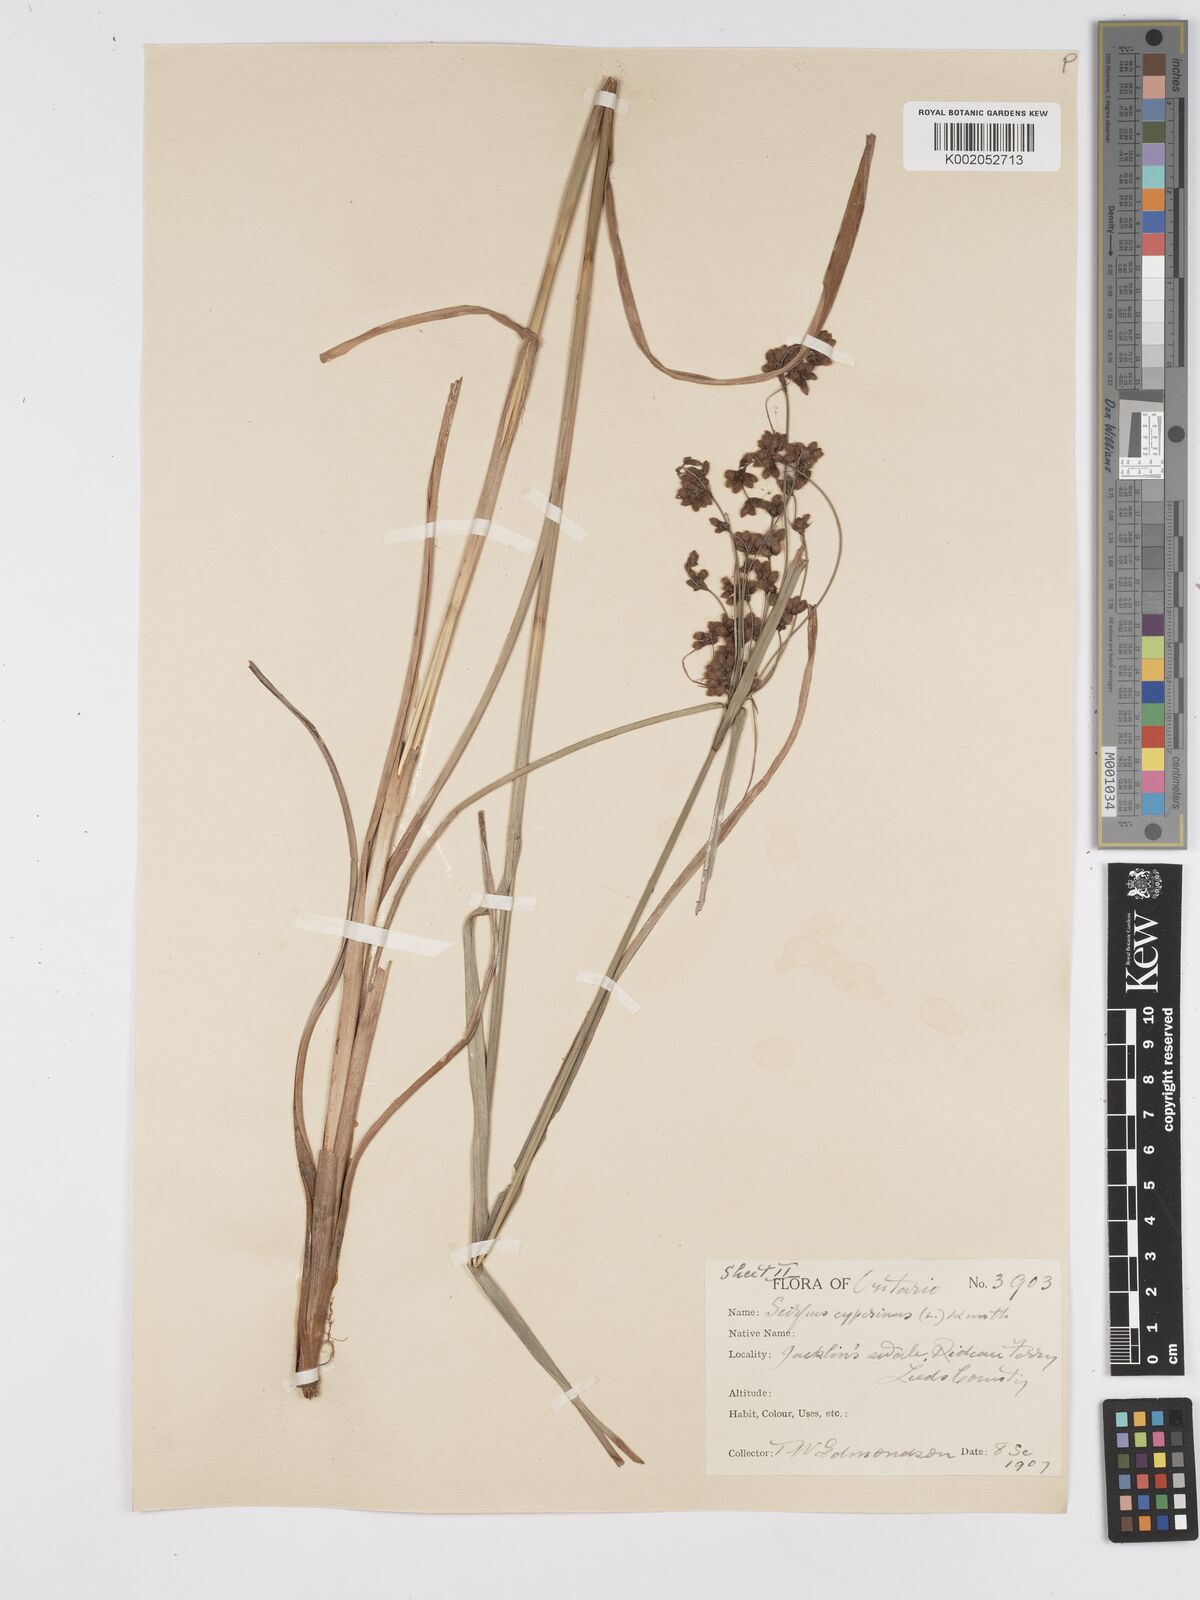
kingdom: Plantae
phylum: Tracheophyta
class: Liliopsida
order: Poales
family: Cyperaceae
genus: Scirpus
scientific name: Scirpus cyperinus
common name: Black-sheathed bulrush
